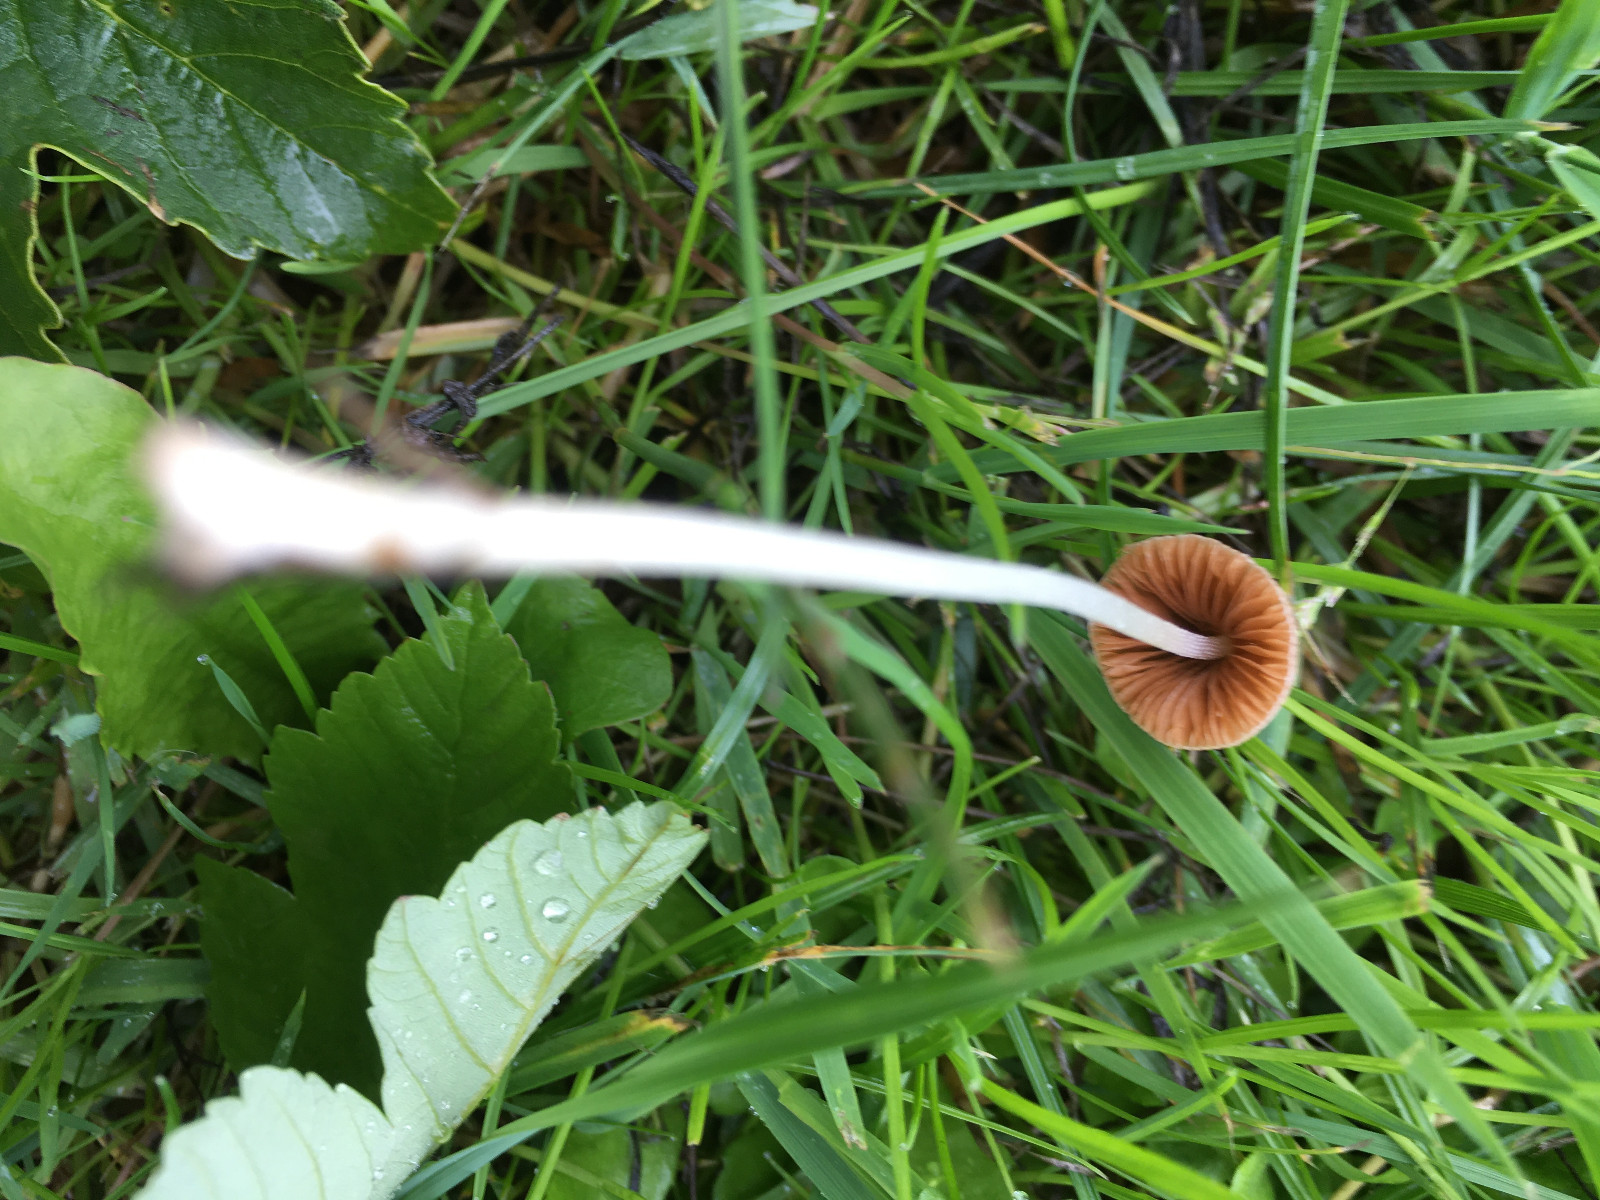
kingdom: Fungi
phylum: Basidiomycota
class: Agaricomycetes
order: Agaricales
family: Bolbitiaceae
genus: Conocybe
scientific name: Conocybe apala
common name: mælkehvid keglehat
